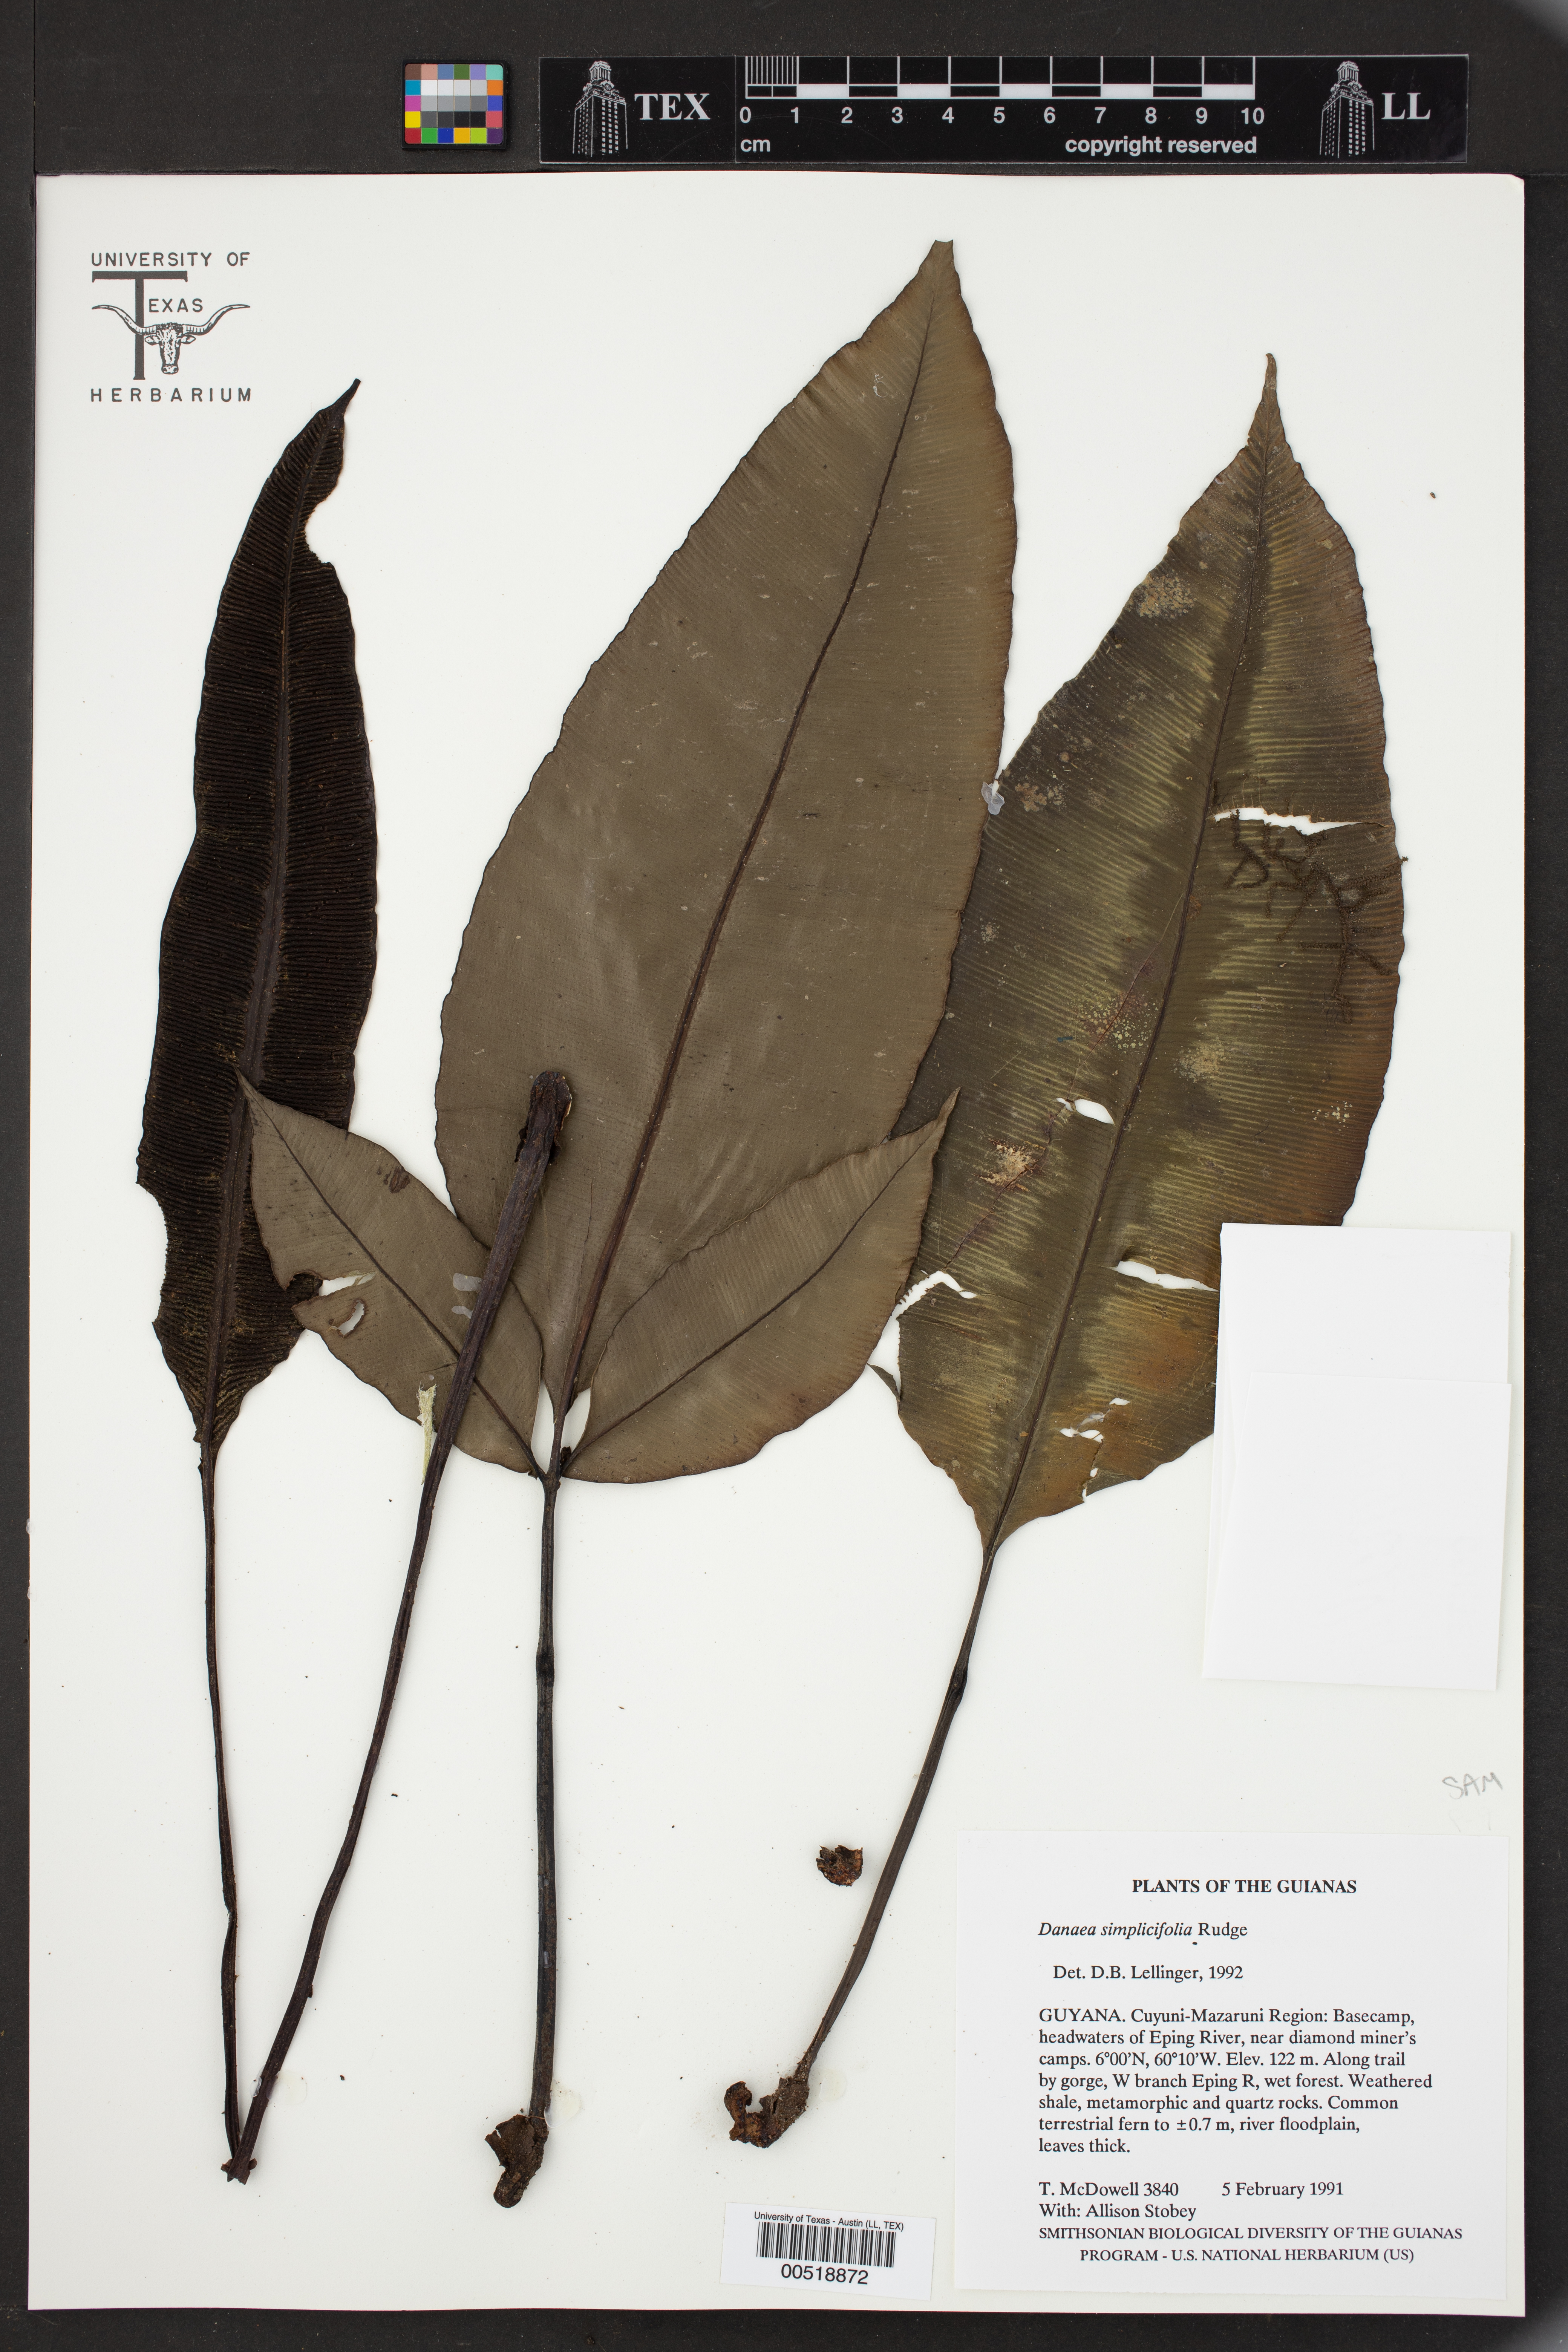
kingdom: Plantae
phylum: Tracheophyta
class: Polypodiopsida
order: Marattiales
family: Marattiaceae
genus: Danaea
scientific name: Danaea simplicifolia
